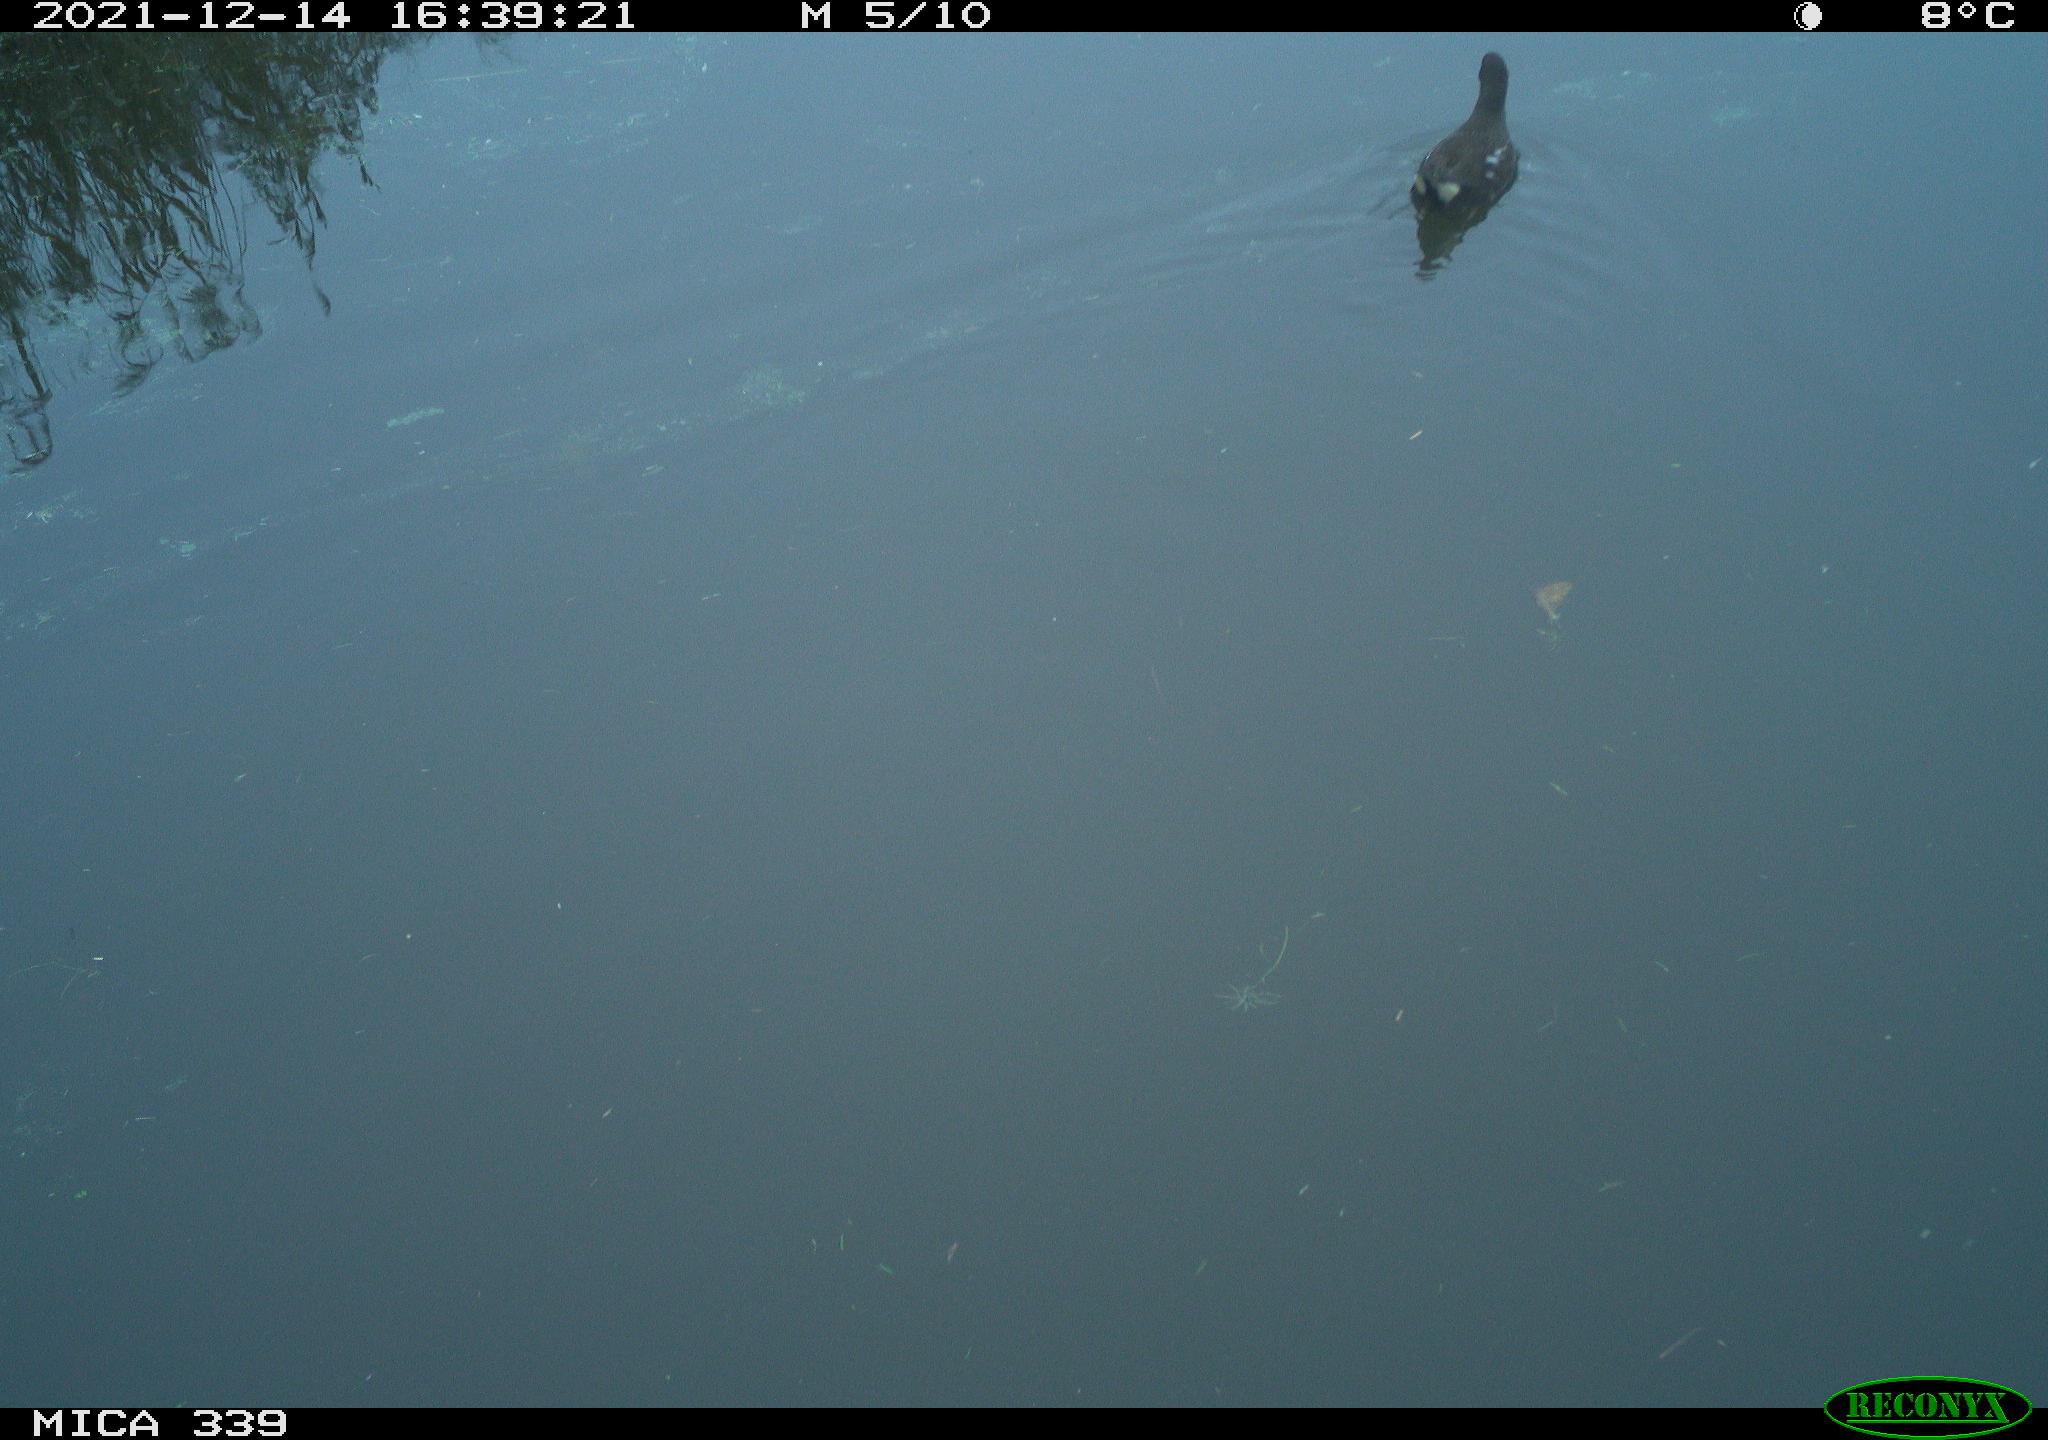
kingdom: Animalia
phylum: Chordata
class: Aves
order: Gruiformes
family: Rallidae
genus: Gallinula
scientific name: Gallinula chloropus
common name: Common moorhen
